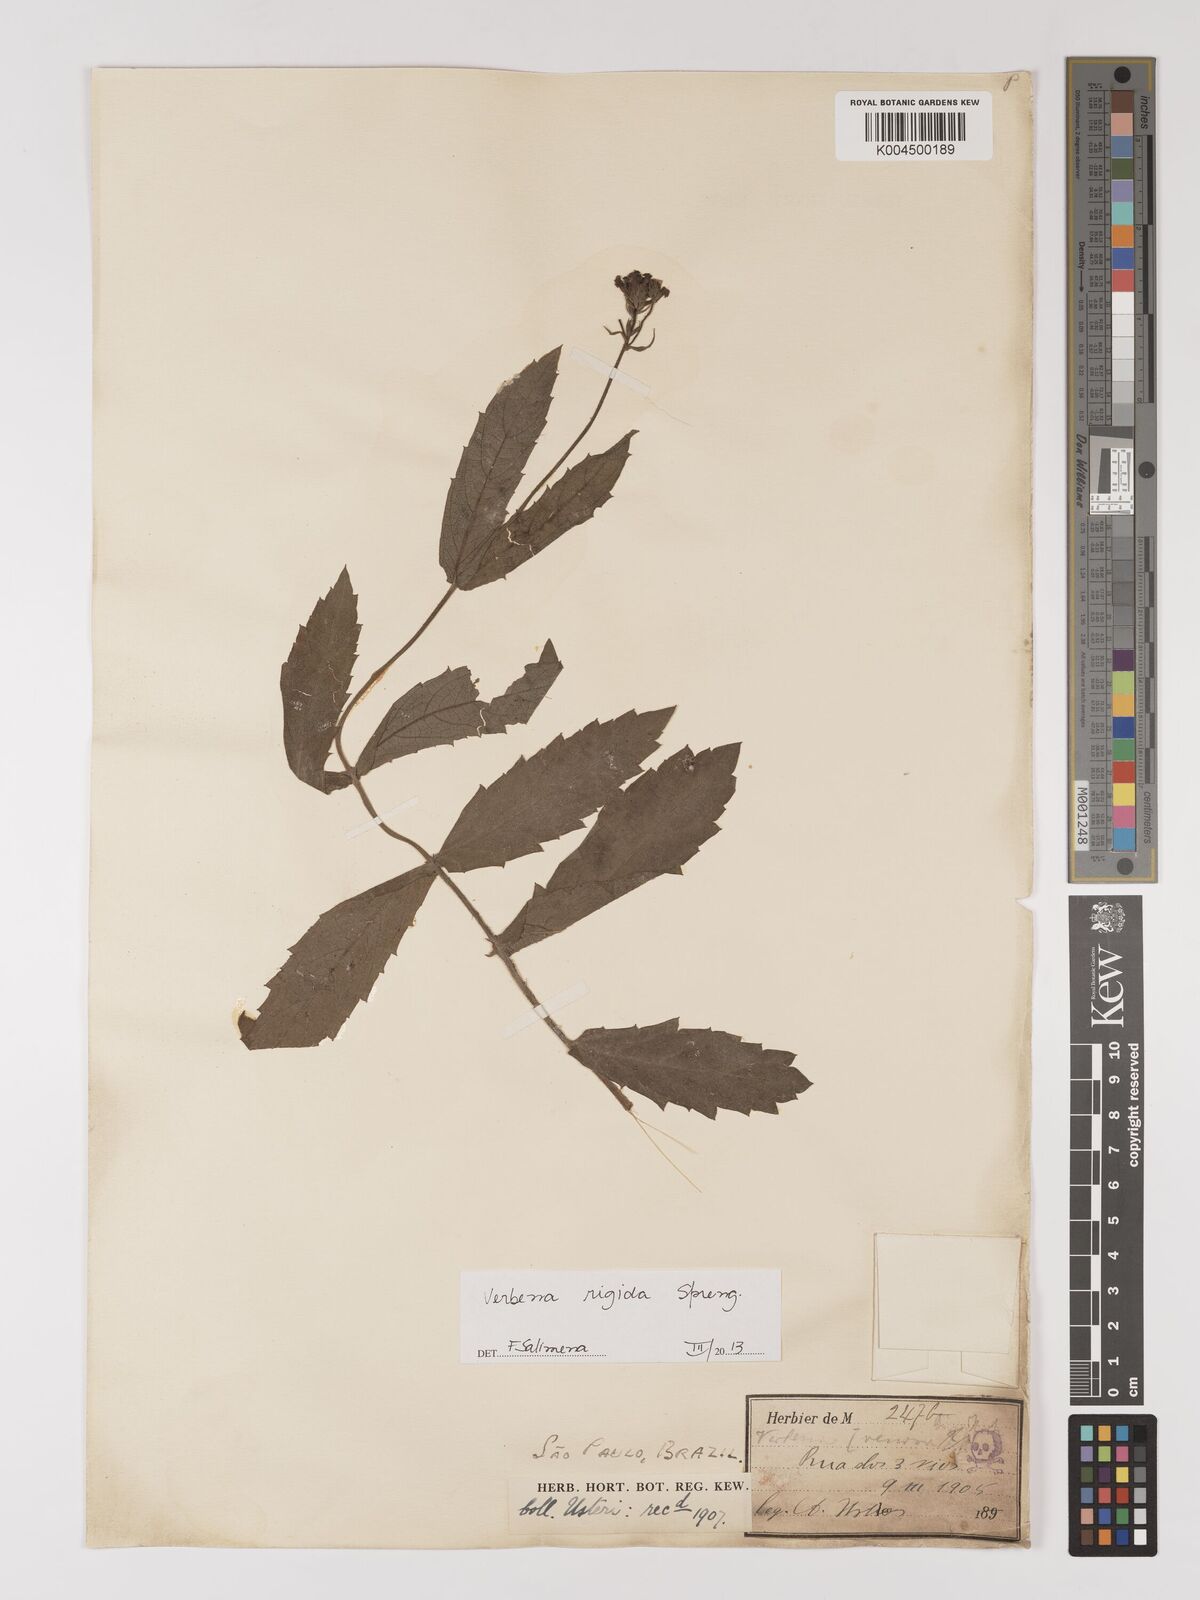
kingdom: Plantae
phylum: Tracheophyta
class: Magnoliopsida
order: Lamiales
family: Verbenaceae
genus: Verbena
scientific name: Verbena rigida
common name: Slender vervain
